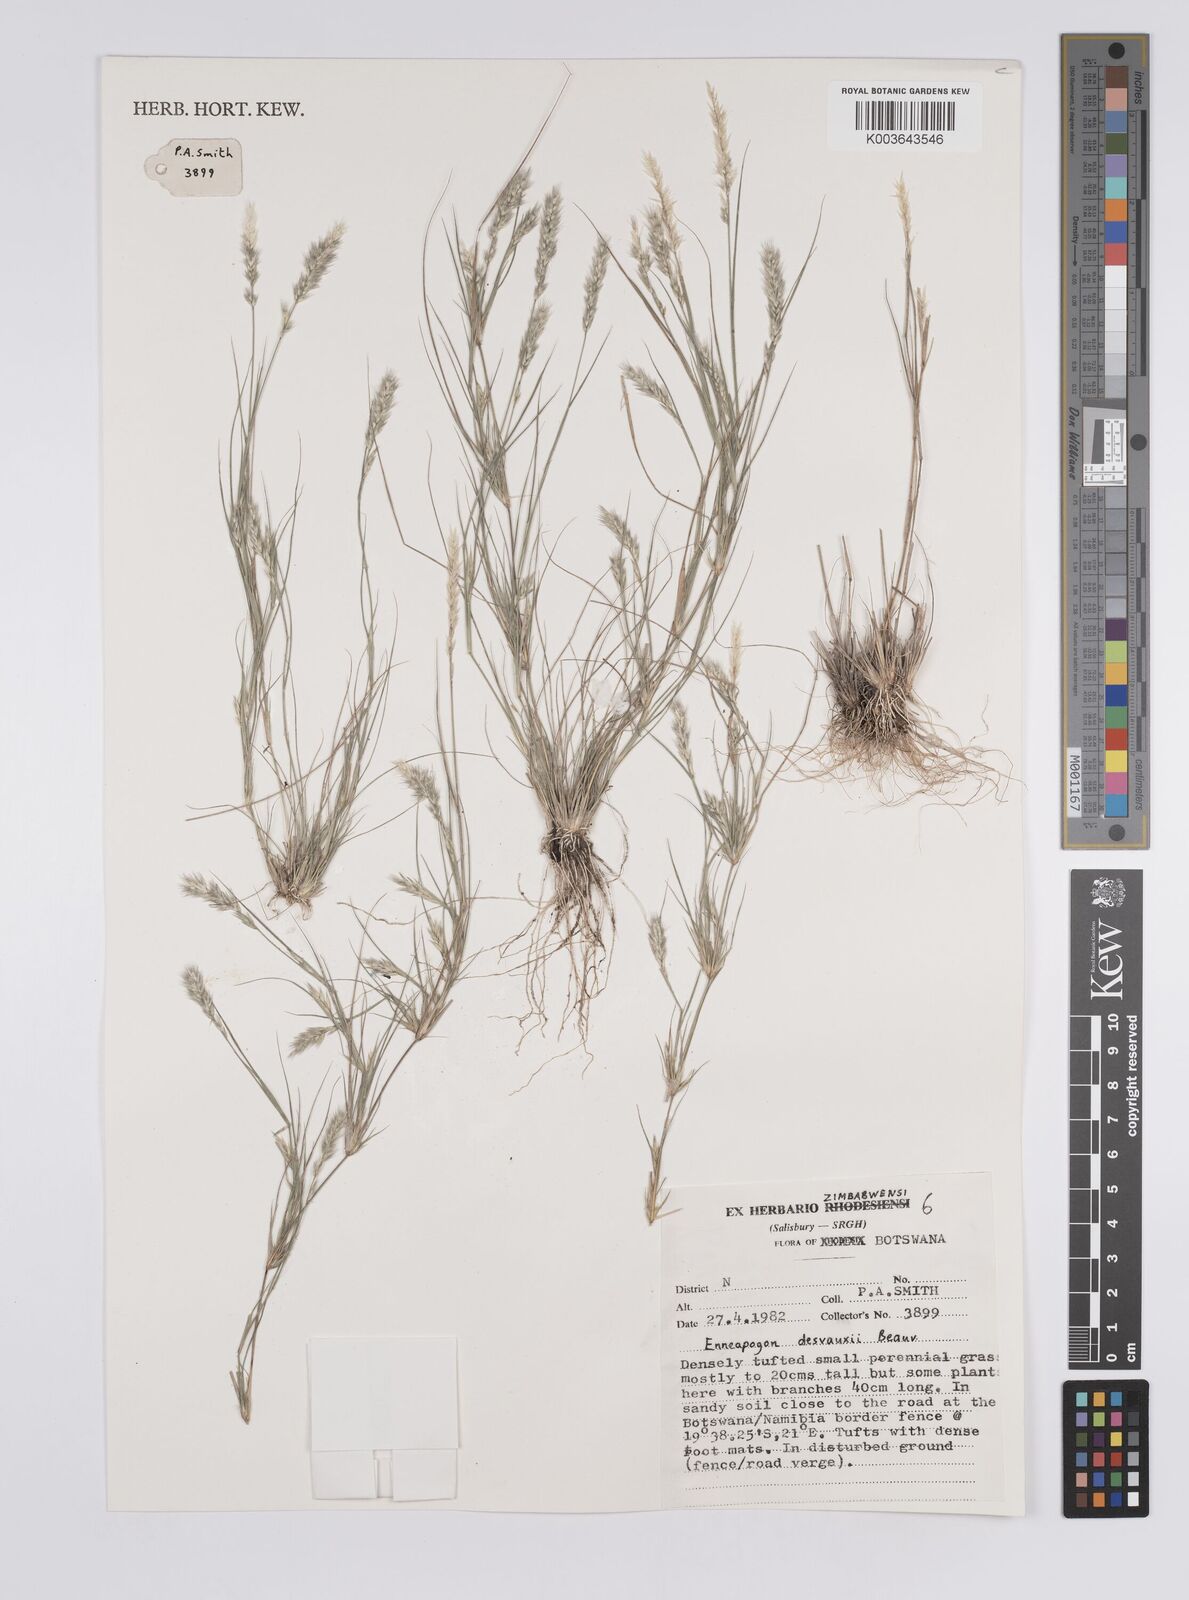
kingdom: Plantae
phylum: Tracheophyta
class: Liliopsida
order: Poales
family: Poaceae
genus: Enneapogon
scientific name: Enneapogon desvauxii
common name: Feather pappus grass
